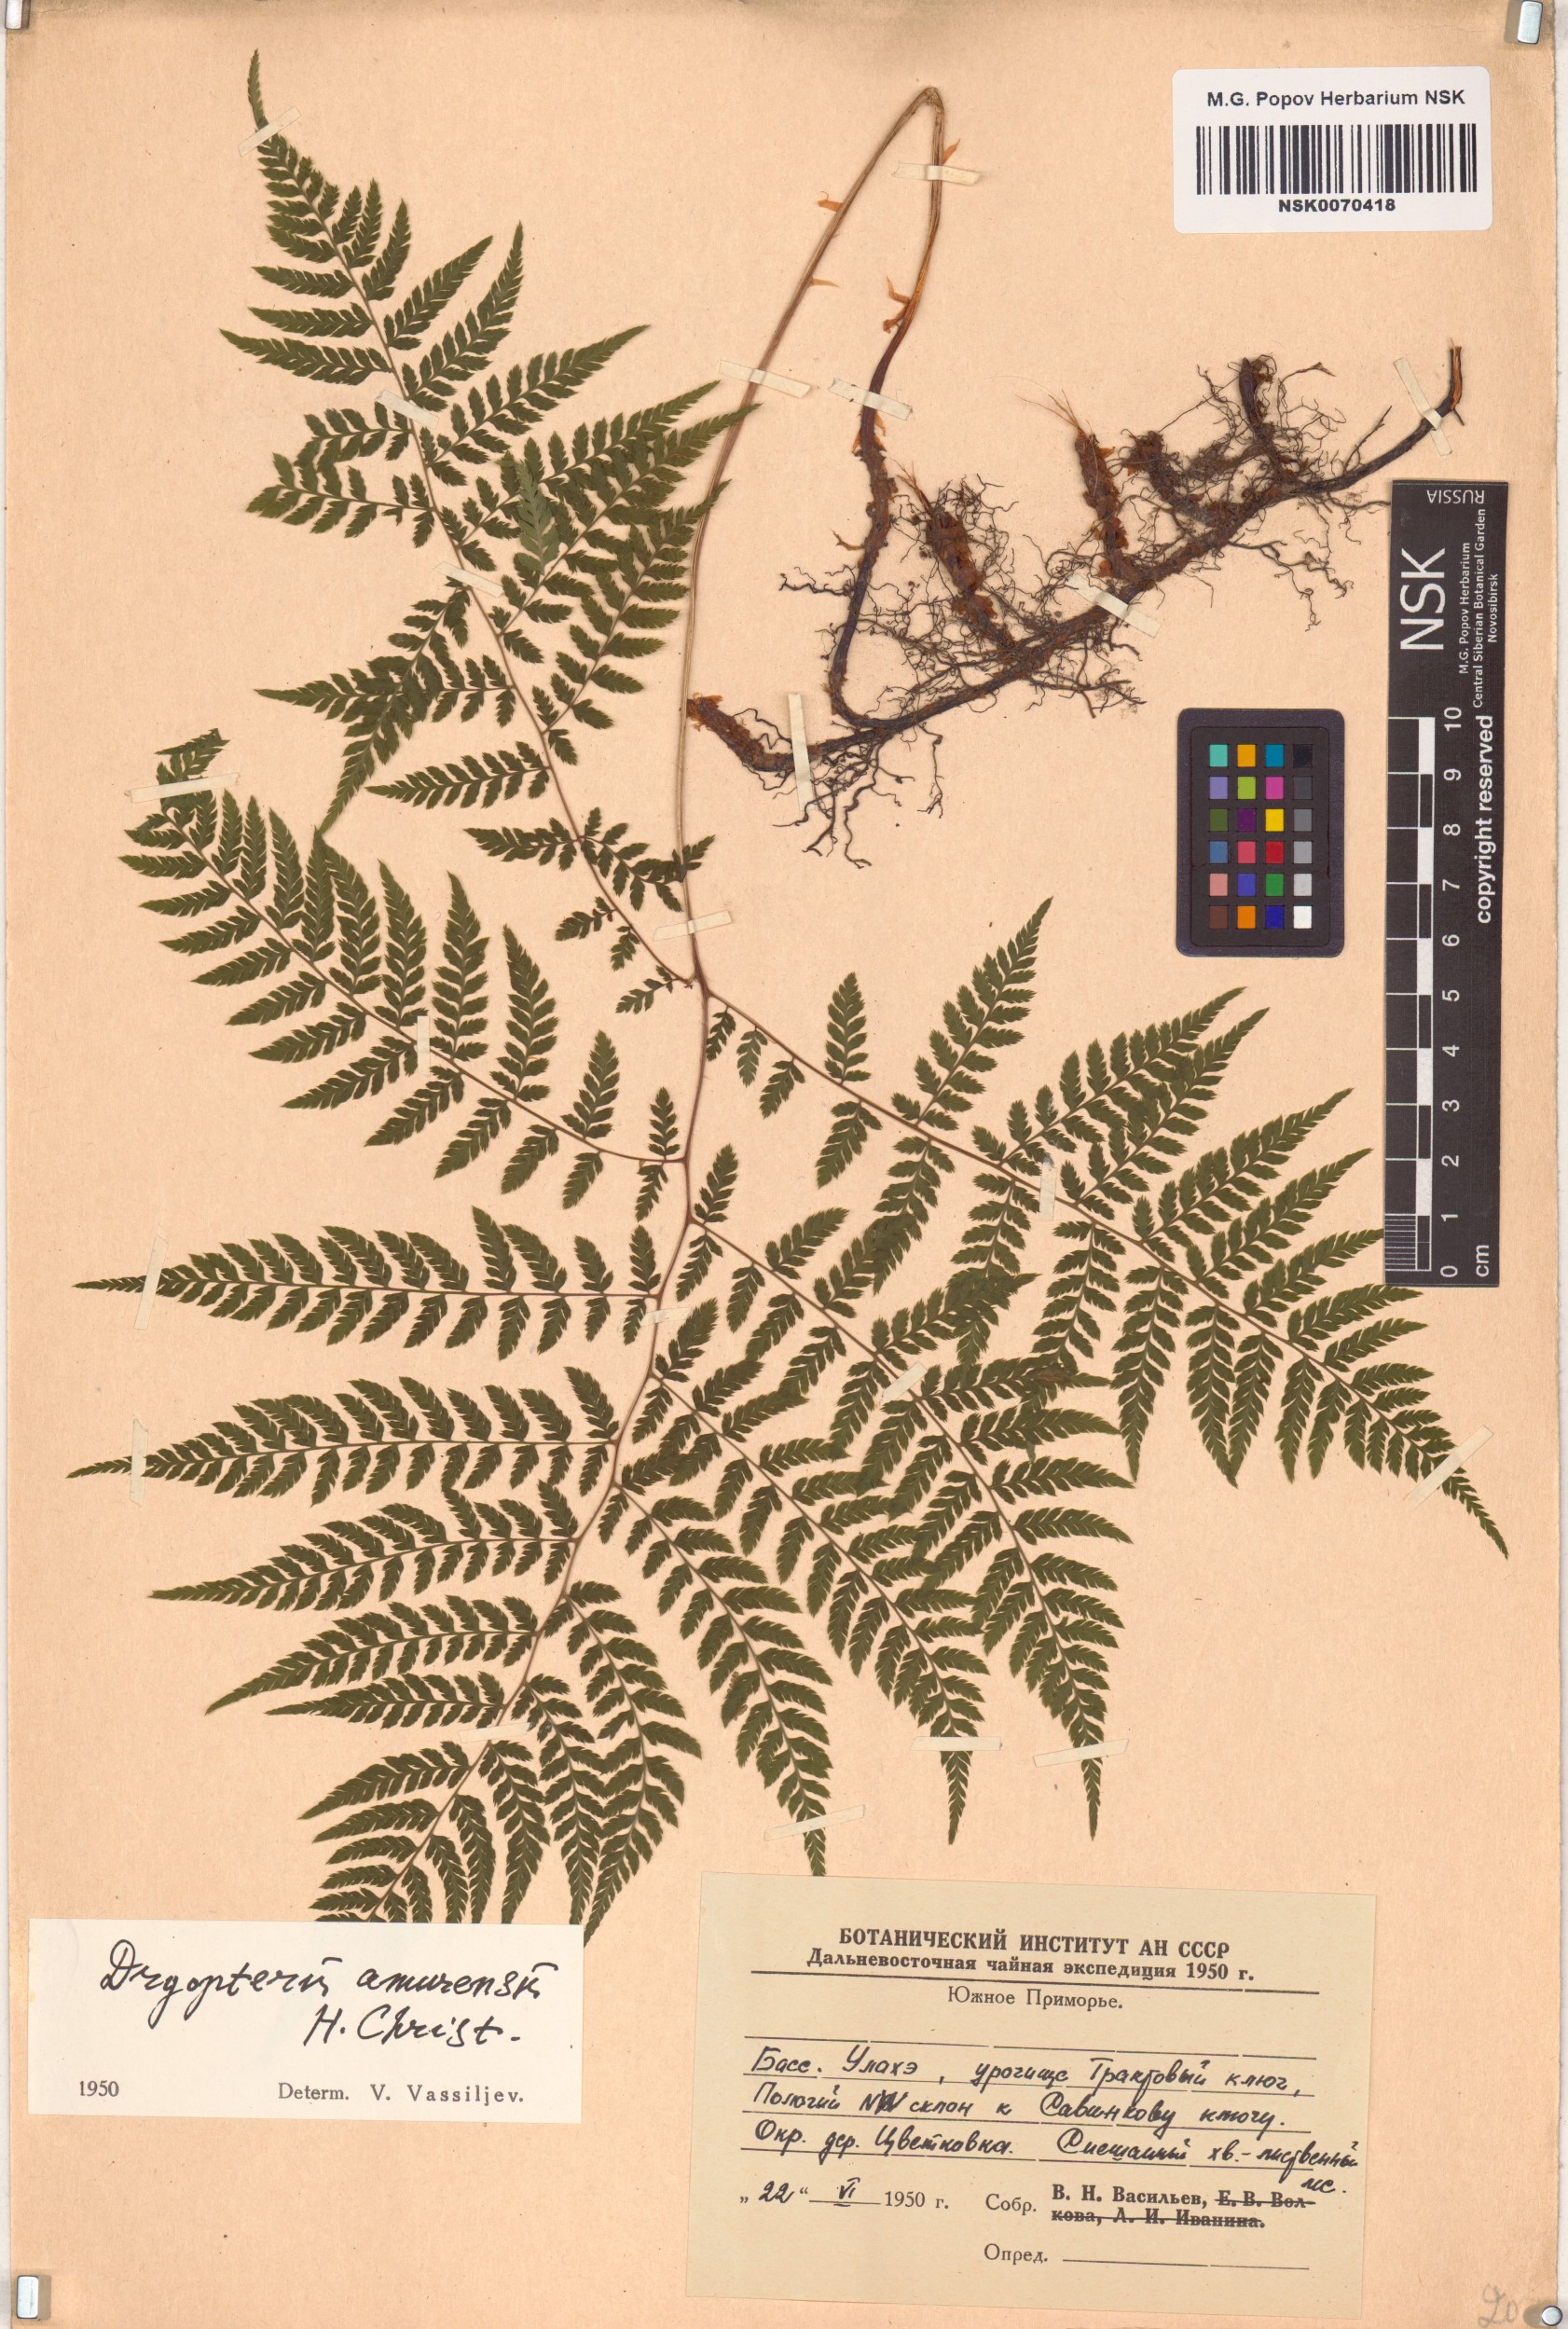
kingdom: Plantae
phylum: Tracheophyta
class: Polypodiopsida
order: Polypodiales
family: Dryopteridaceae
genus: Dryopteris
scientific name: Dryopteris amurensis
